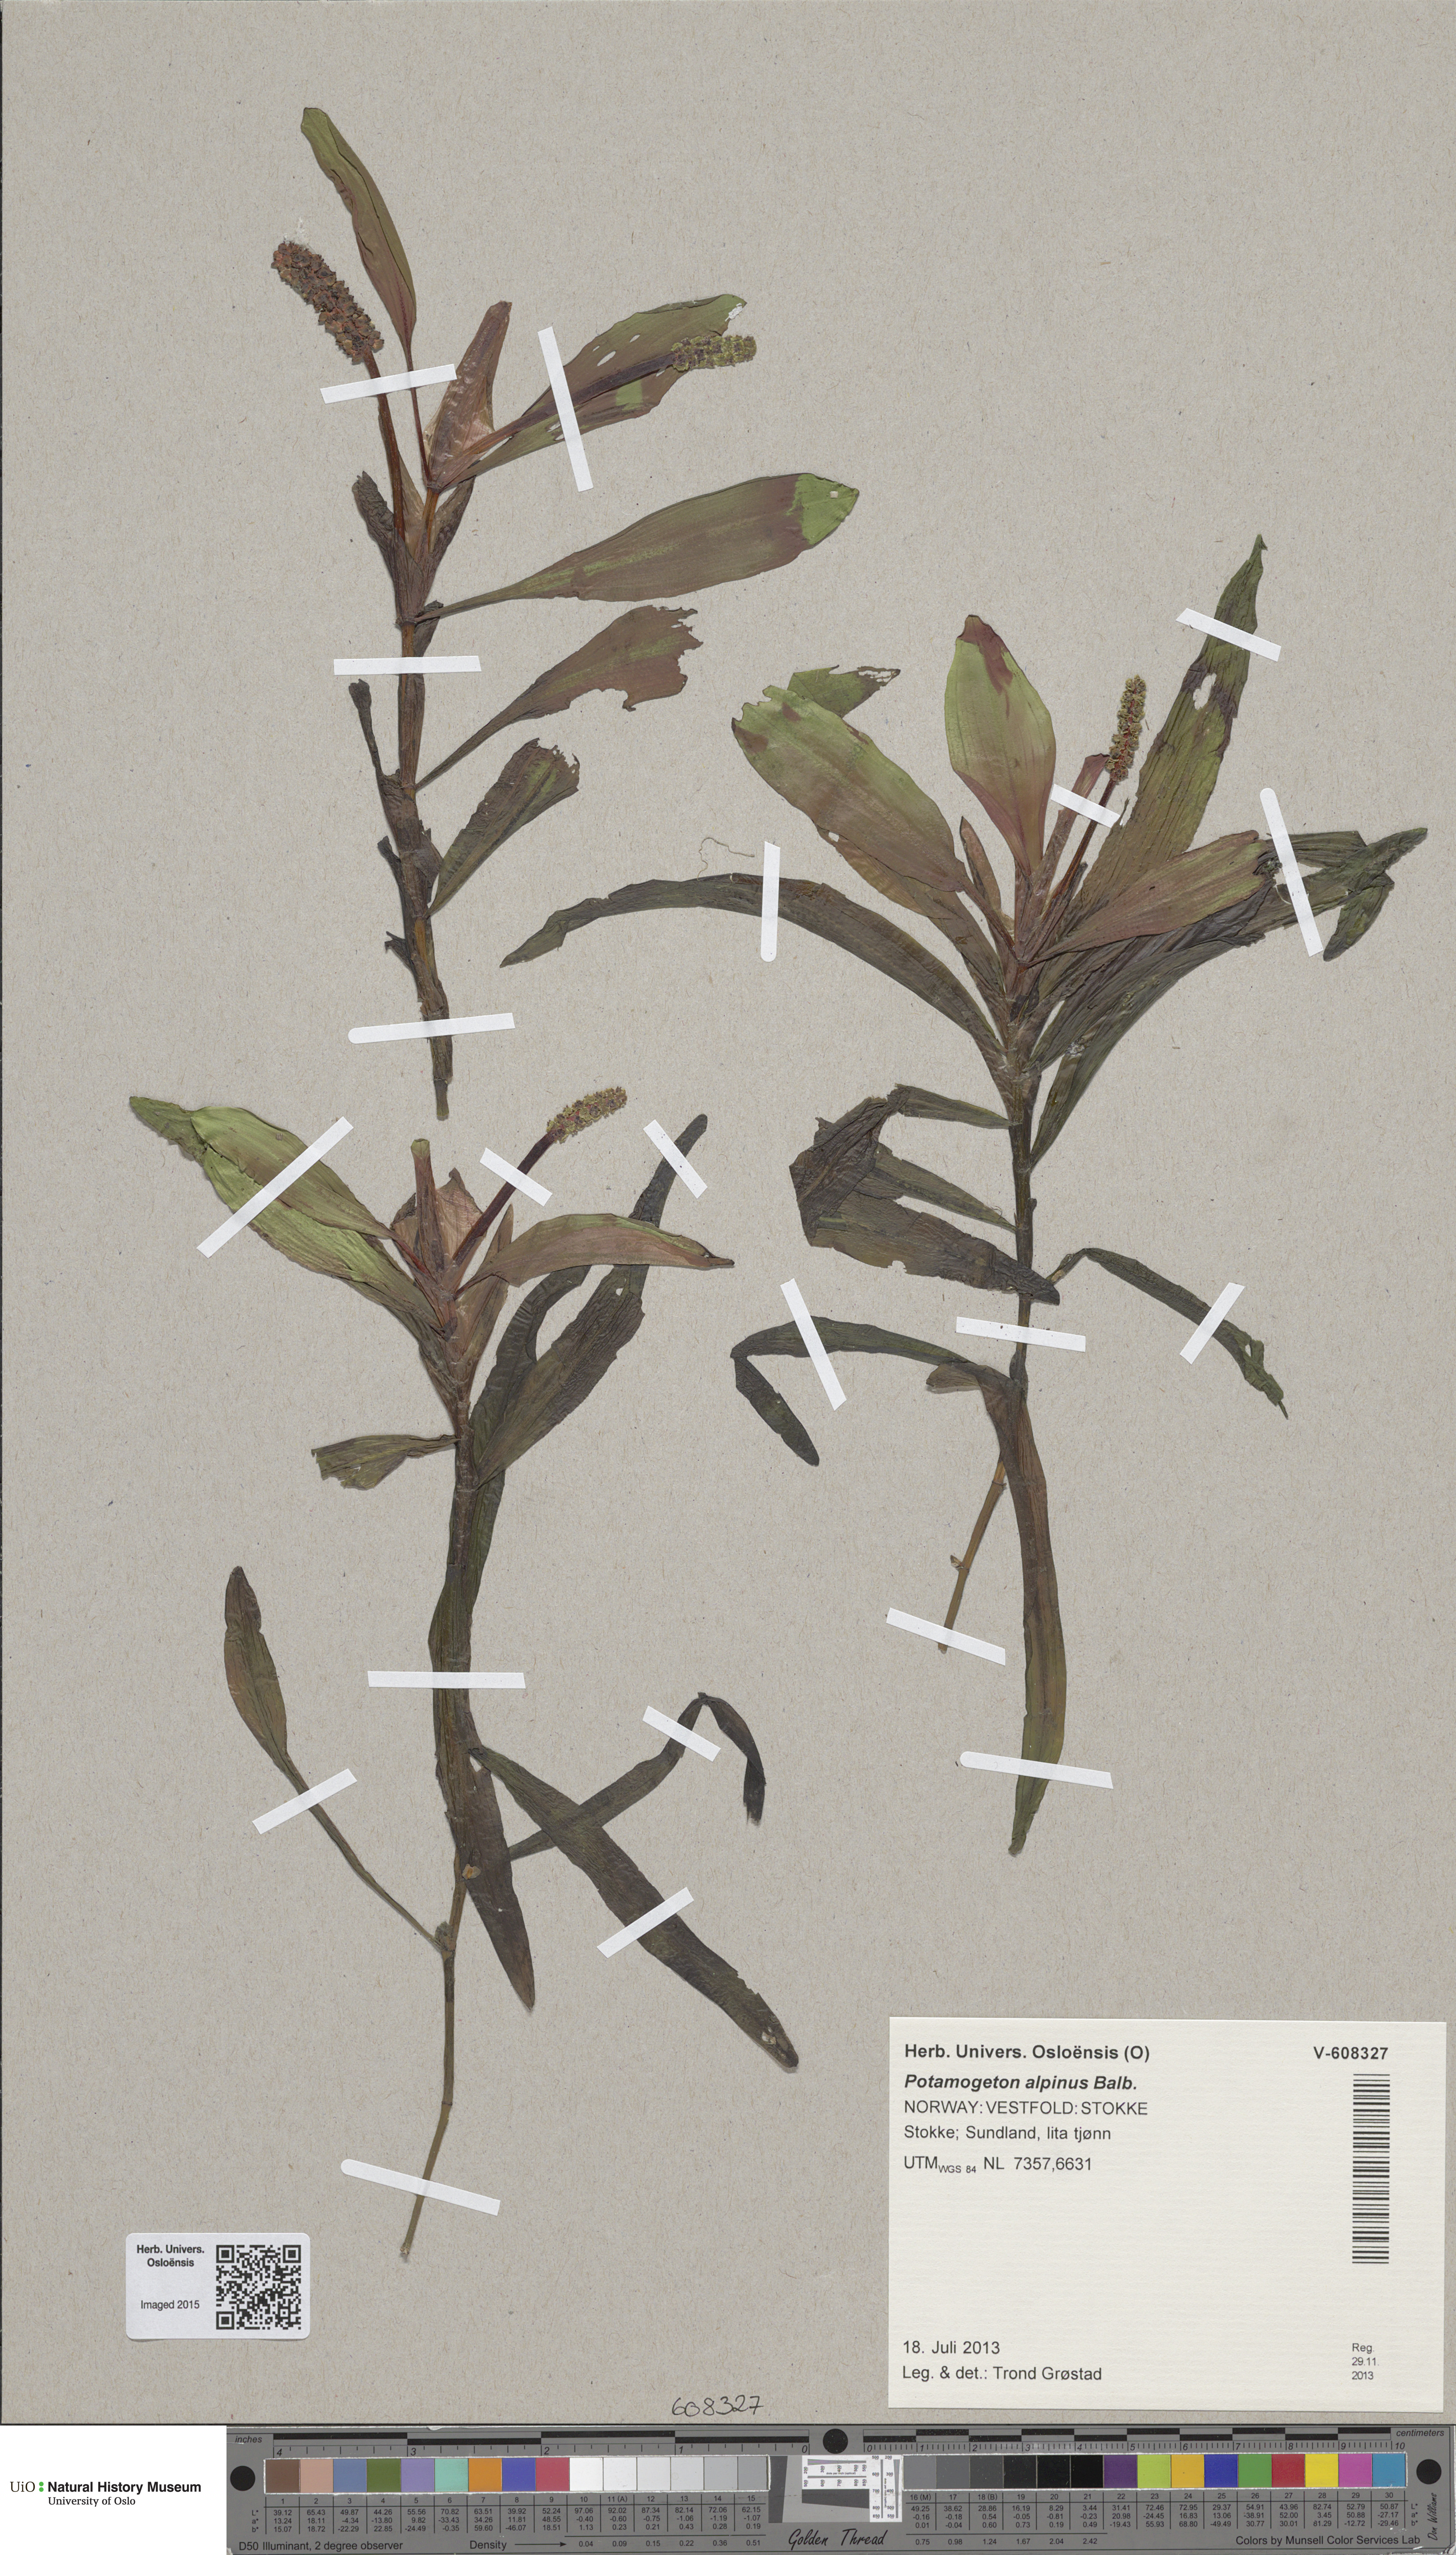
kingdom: Plantae
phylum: Tracheophyta
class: Liliopsida
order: Alismatales
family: Potamogetonaceae
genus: Potamogeton
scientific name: Potamogeton alpinus
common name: Red pondweed
